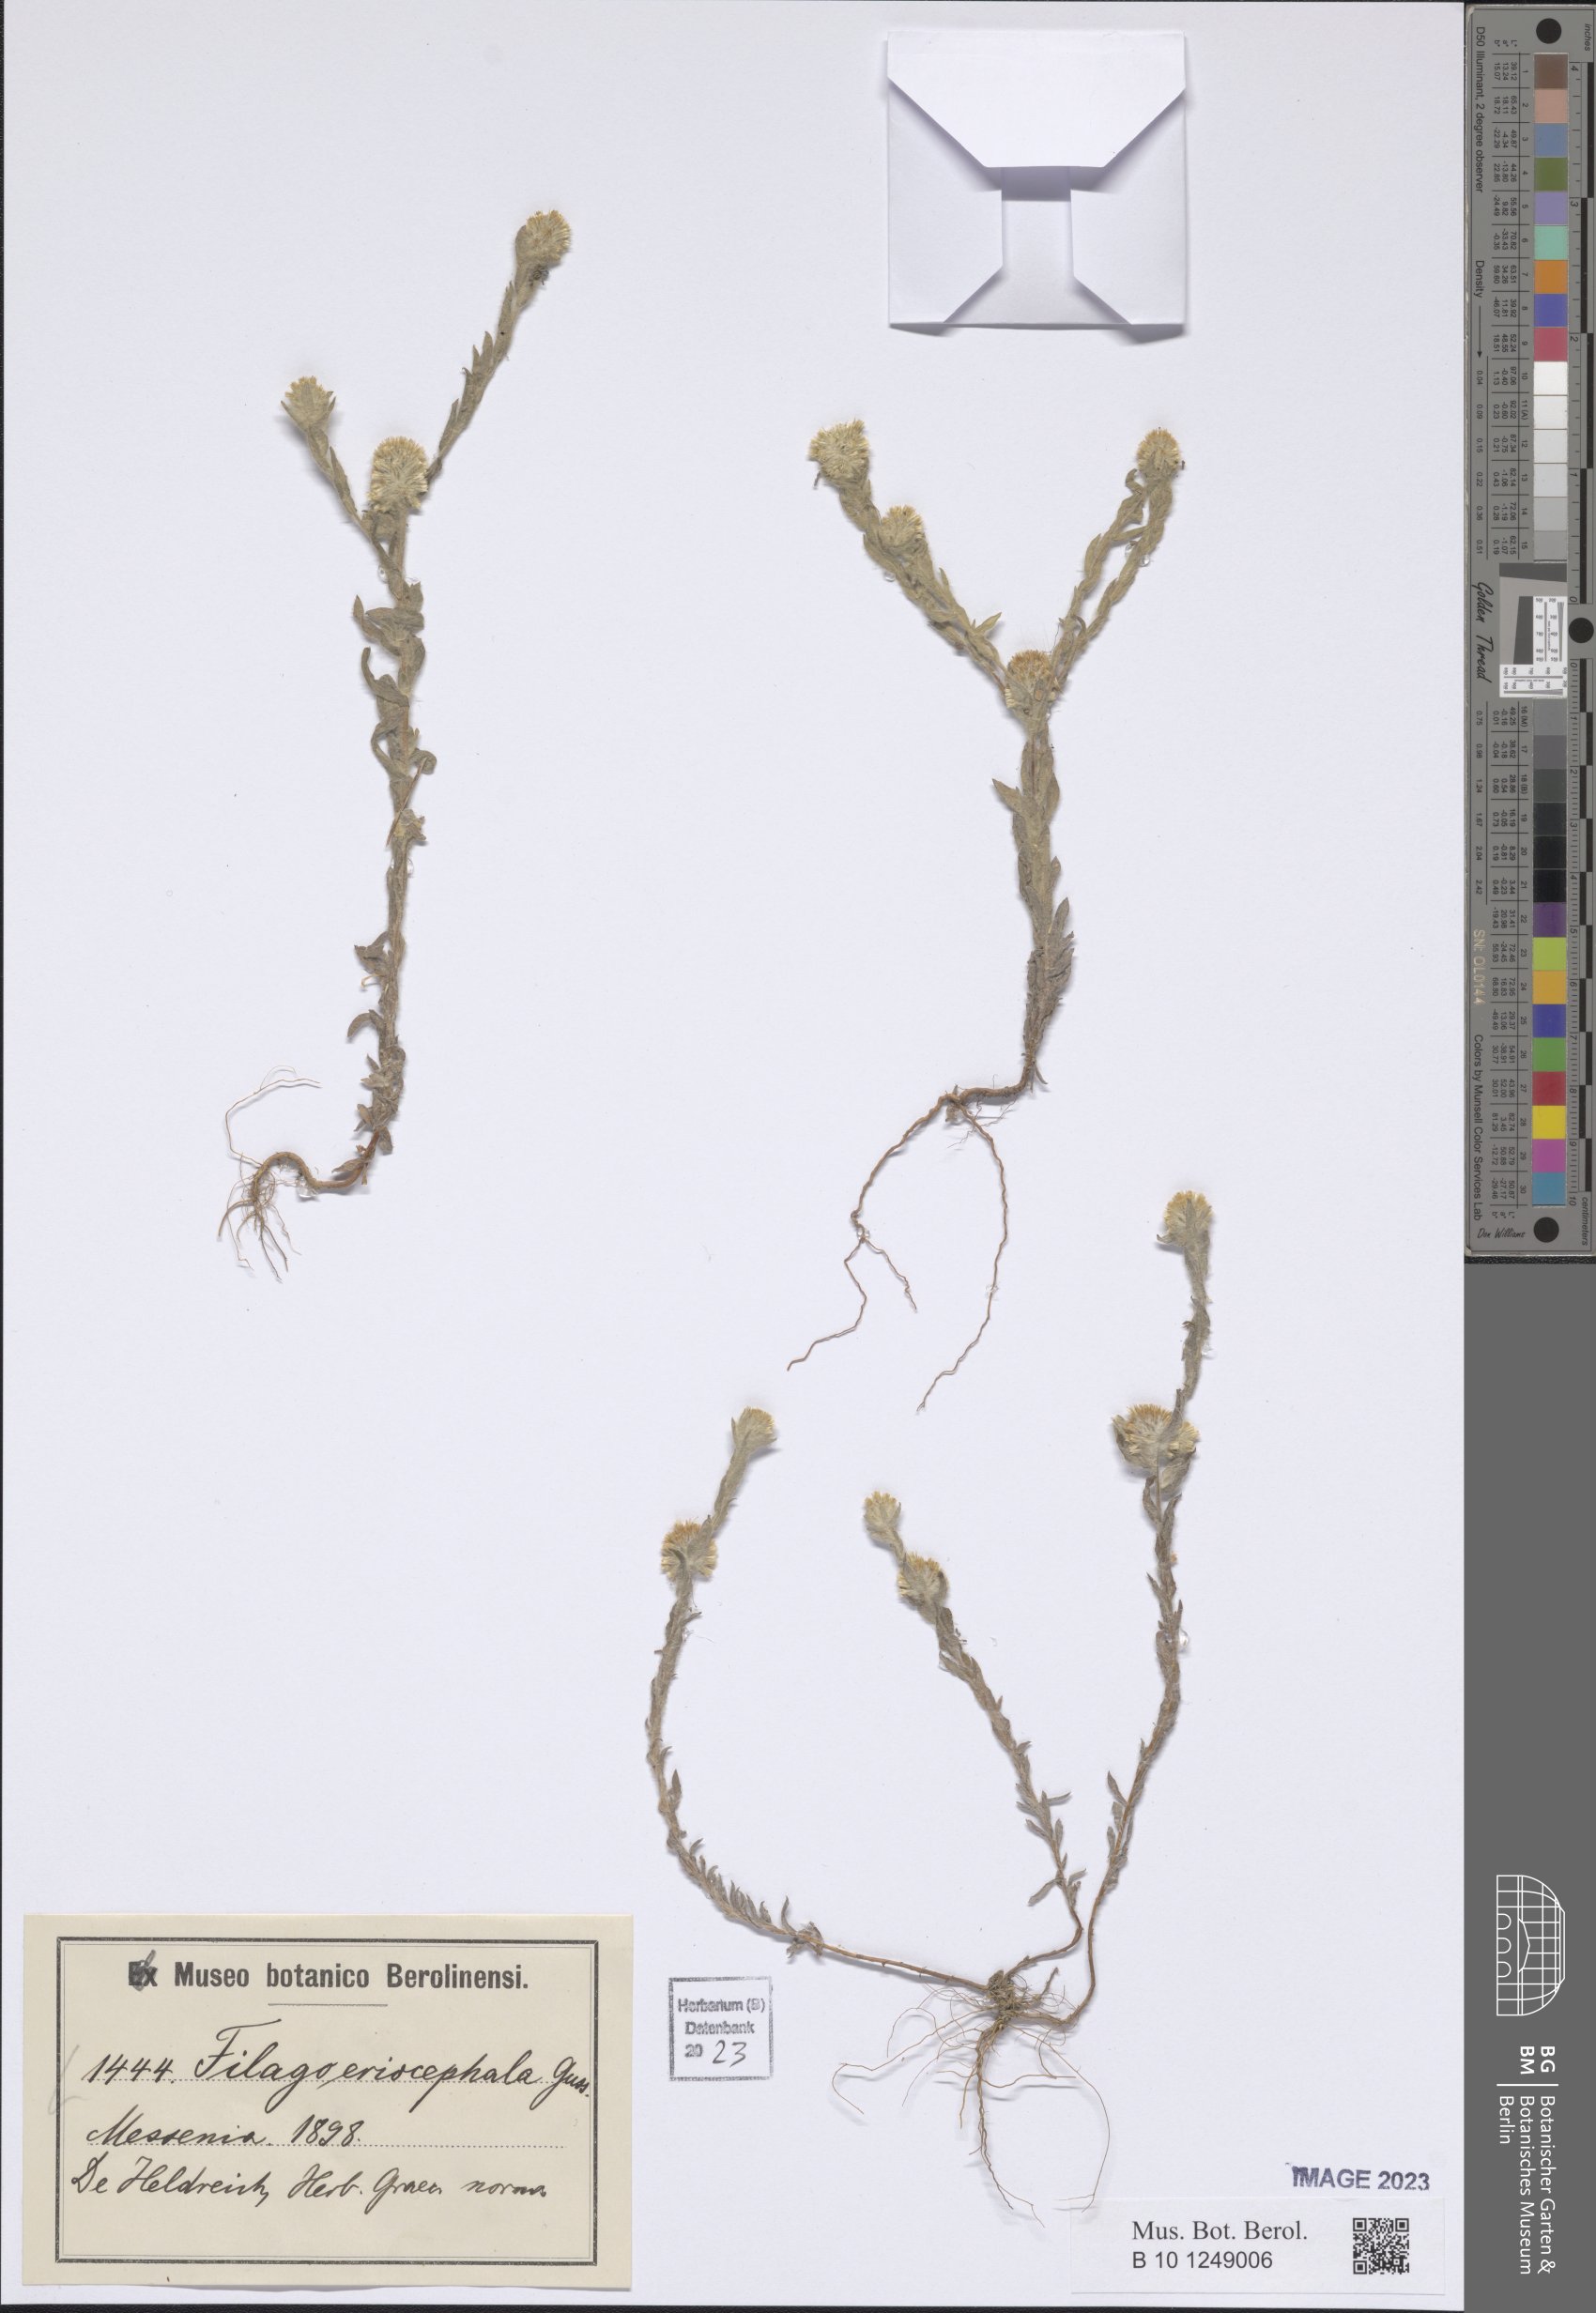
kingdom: Plantae
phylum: Tracheophyta
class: Magnoliopsida
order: Asterales
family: Asteraceae
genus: Filago
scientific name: Filago eriocephala
